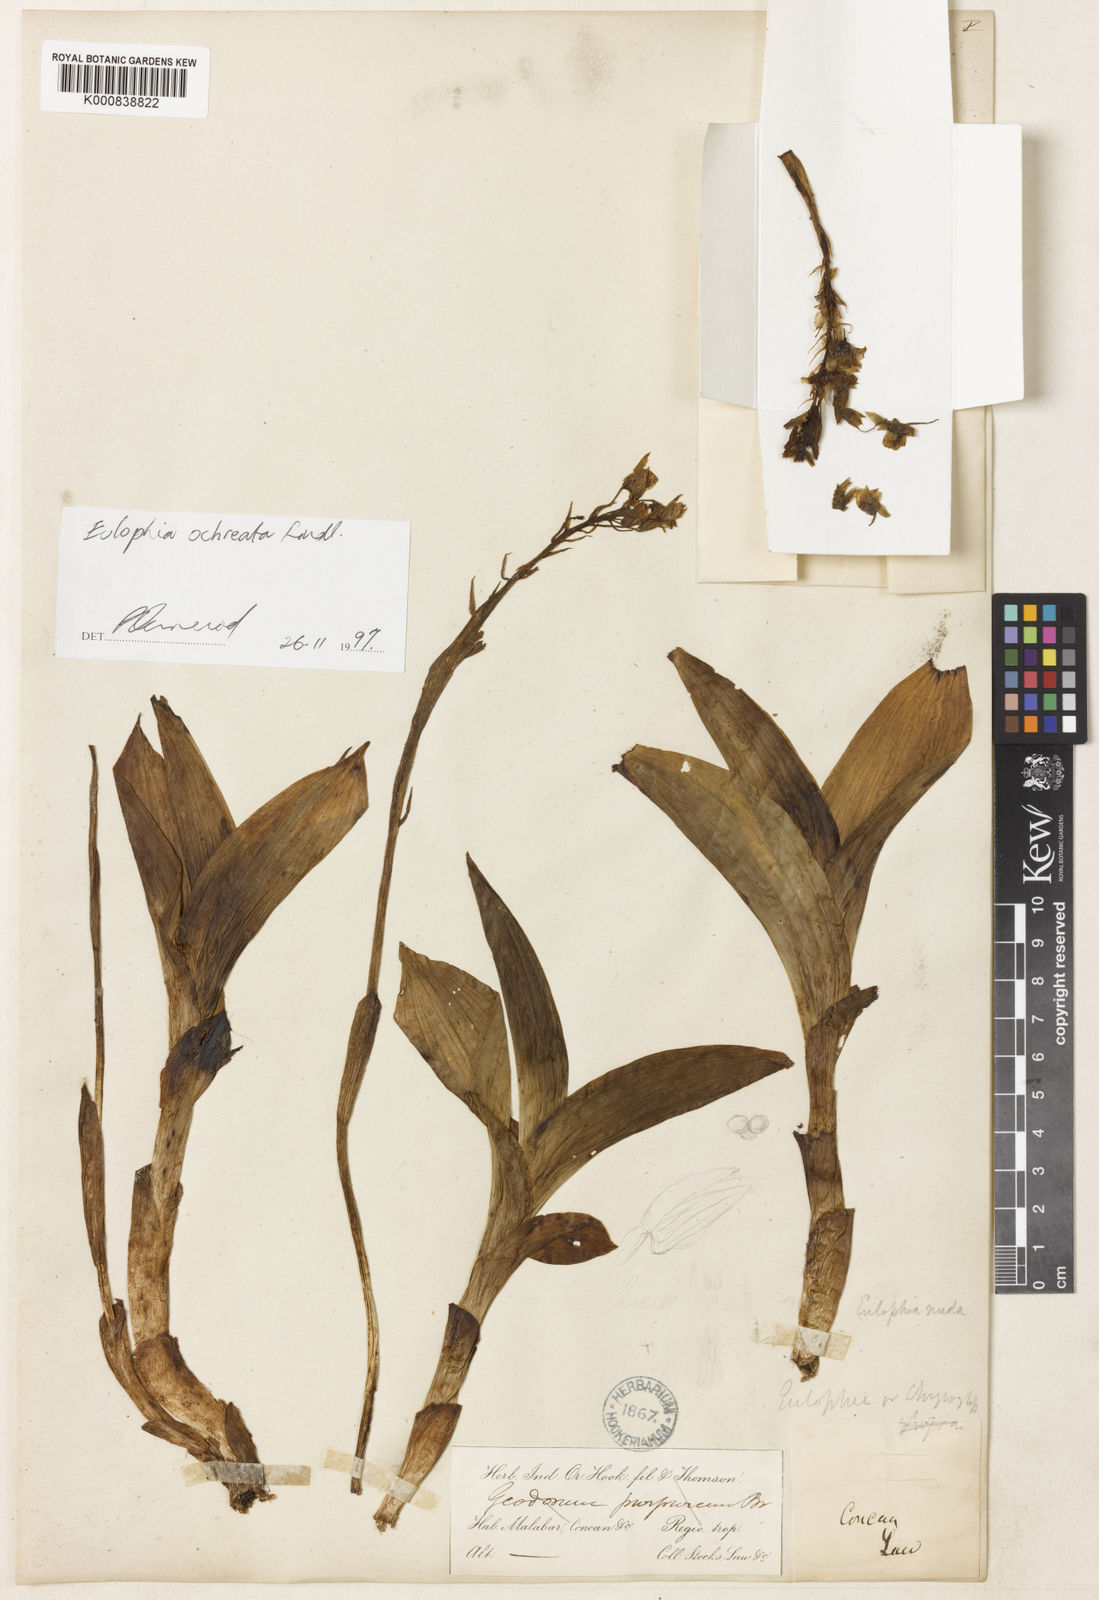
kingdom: Plantae
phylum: Tracheophyta
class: Liliopsida
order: Asparagales
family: Orchidaceae
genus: Eulophia
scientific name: Eulophia ochreata
